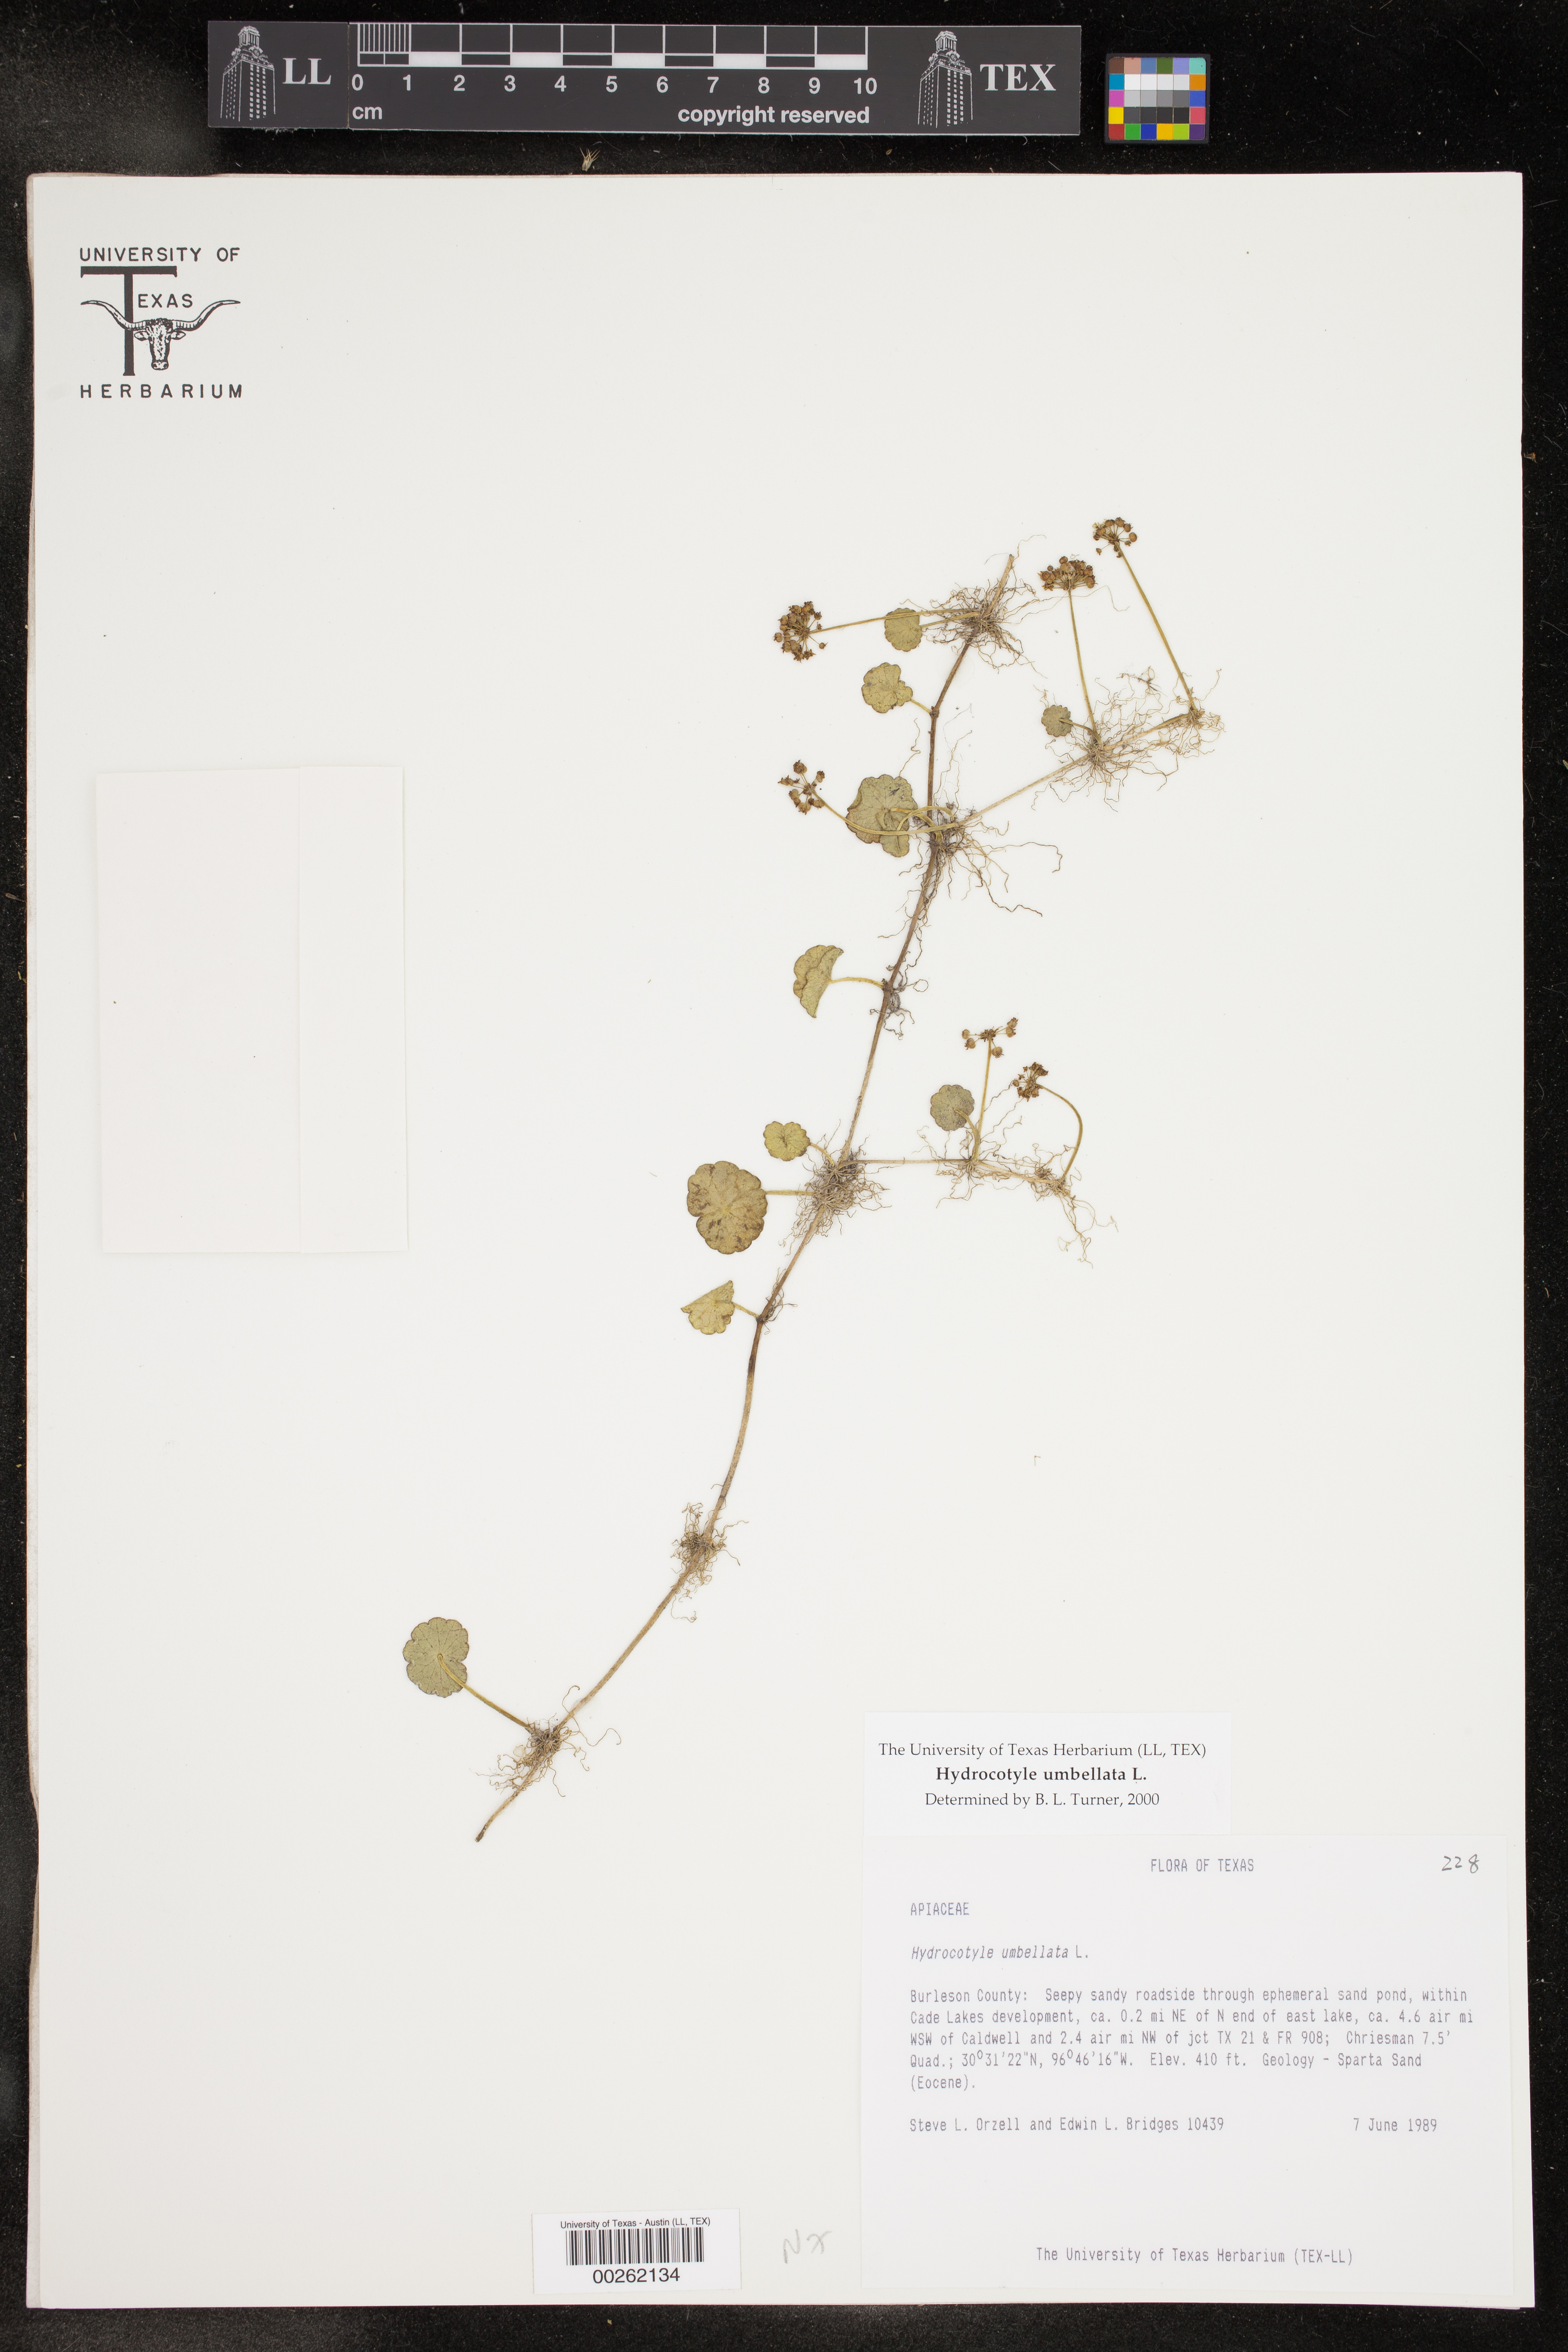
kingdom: Plantae
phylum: Tracheophyta
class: Magnoliopsida
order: Apiales
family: Araliaceae
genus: Hydrocotyle
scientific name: Hydrocotyle umbellata
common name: Water pennywort
